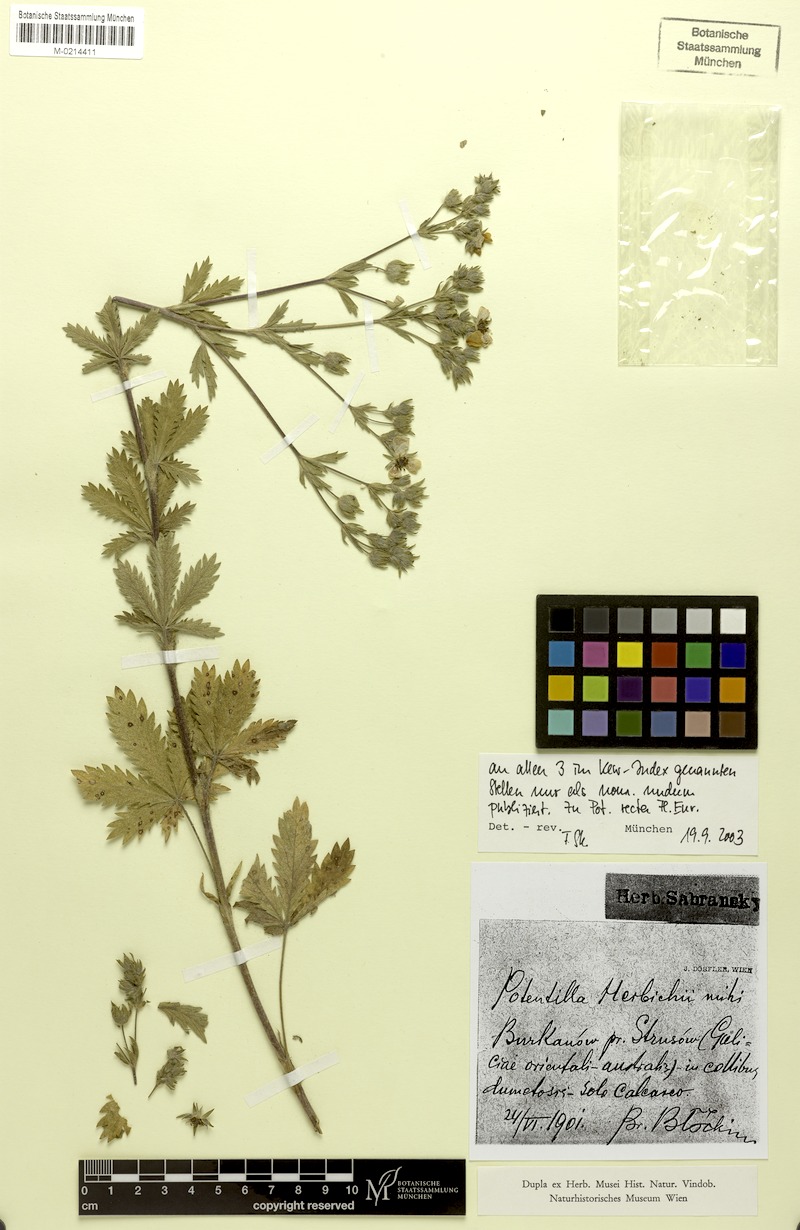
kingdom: Plantae
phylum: Tracheophyta
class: Magnoliopsida
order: Rosales
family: Rosaceae
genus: Potentilla
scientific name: Potentilla recta
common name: Sulphur cinquefoil
